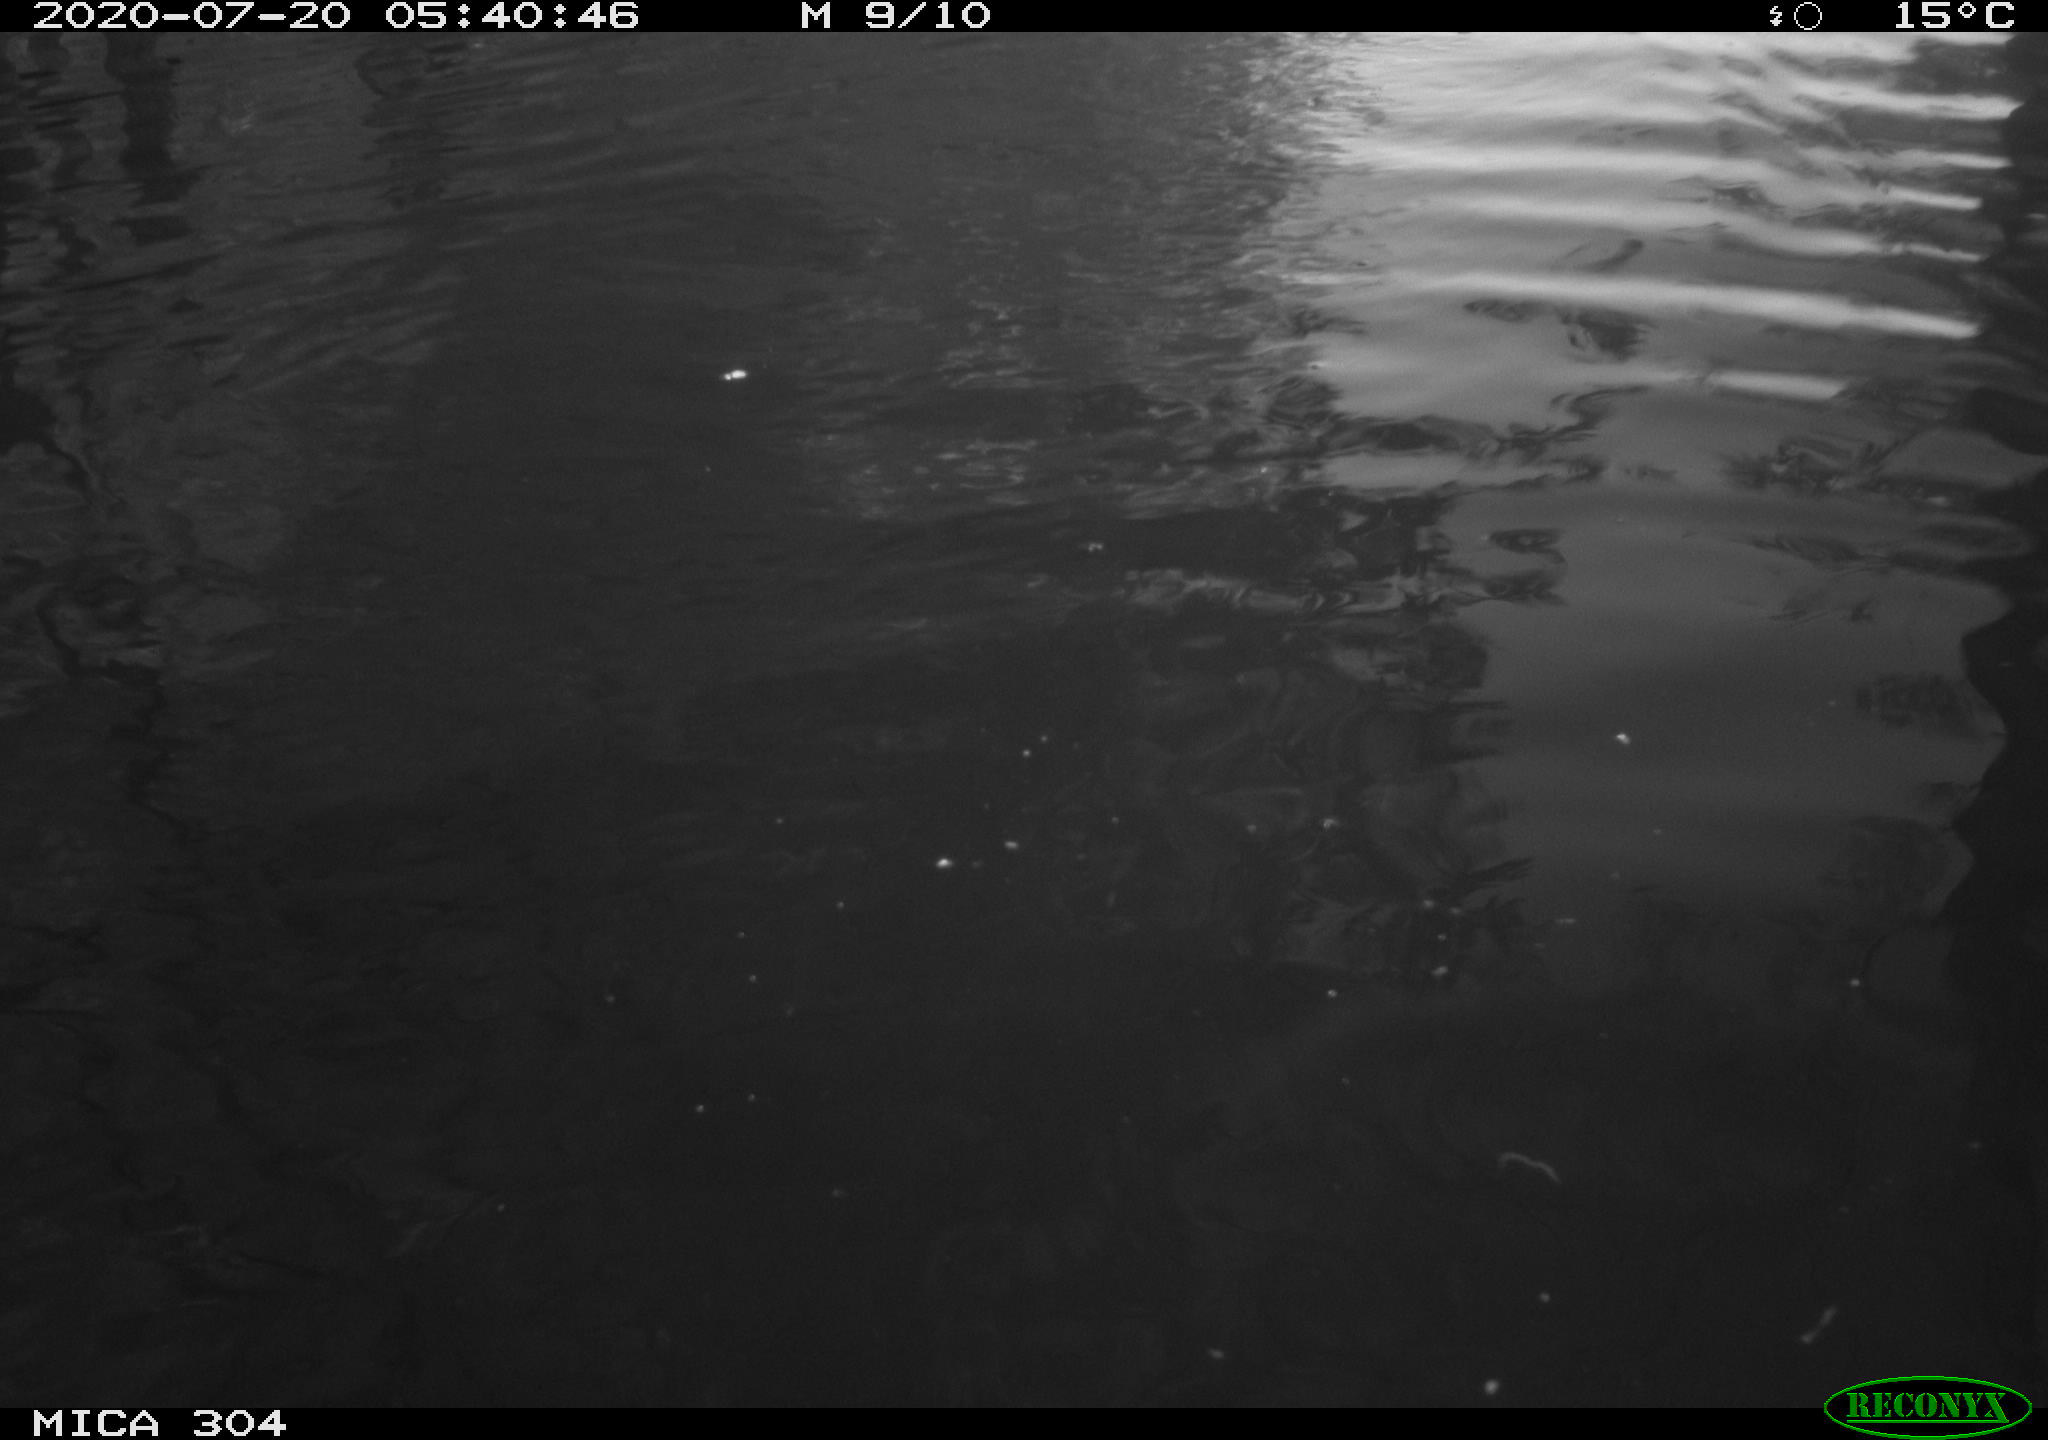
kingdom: Animalia
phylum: Chordata
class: Aves
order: Anseriformes
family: Anatidae
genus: Anas
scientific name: Anas platyrhynchos
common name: Mallard
